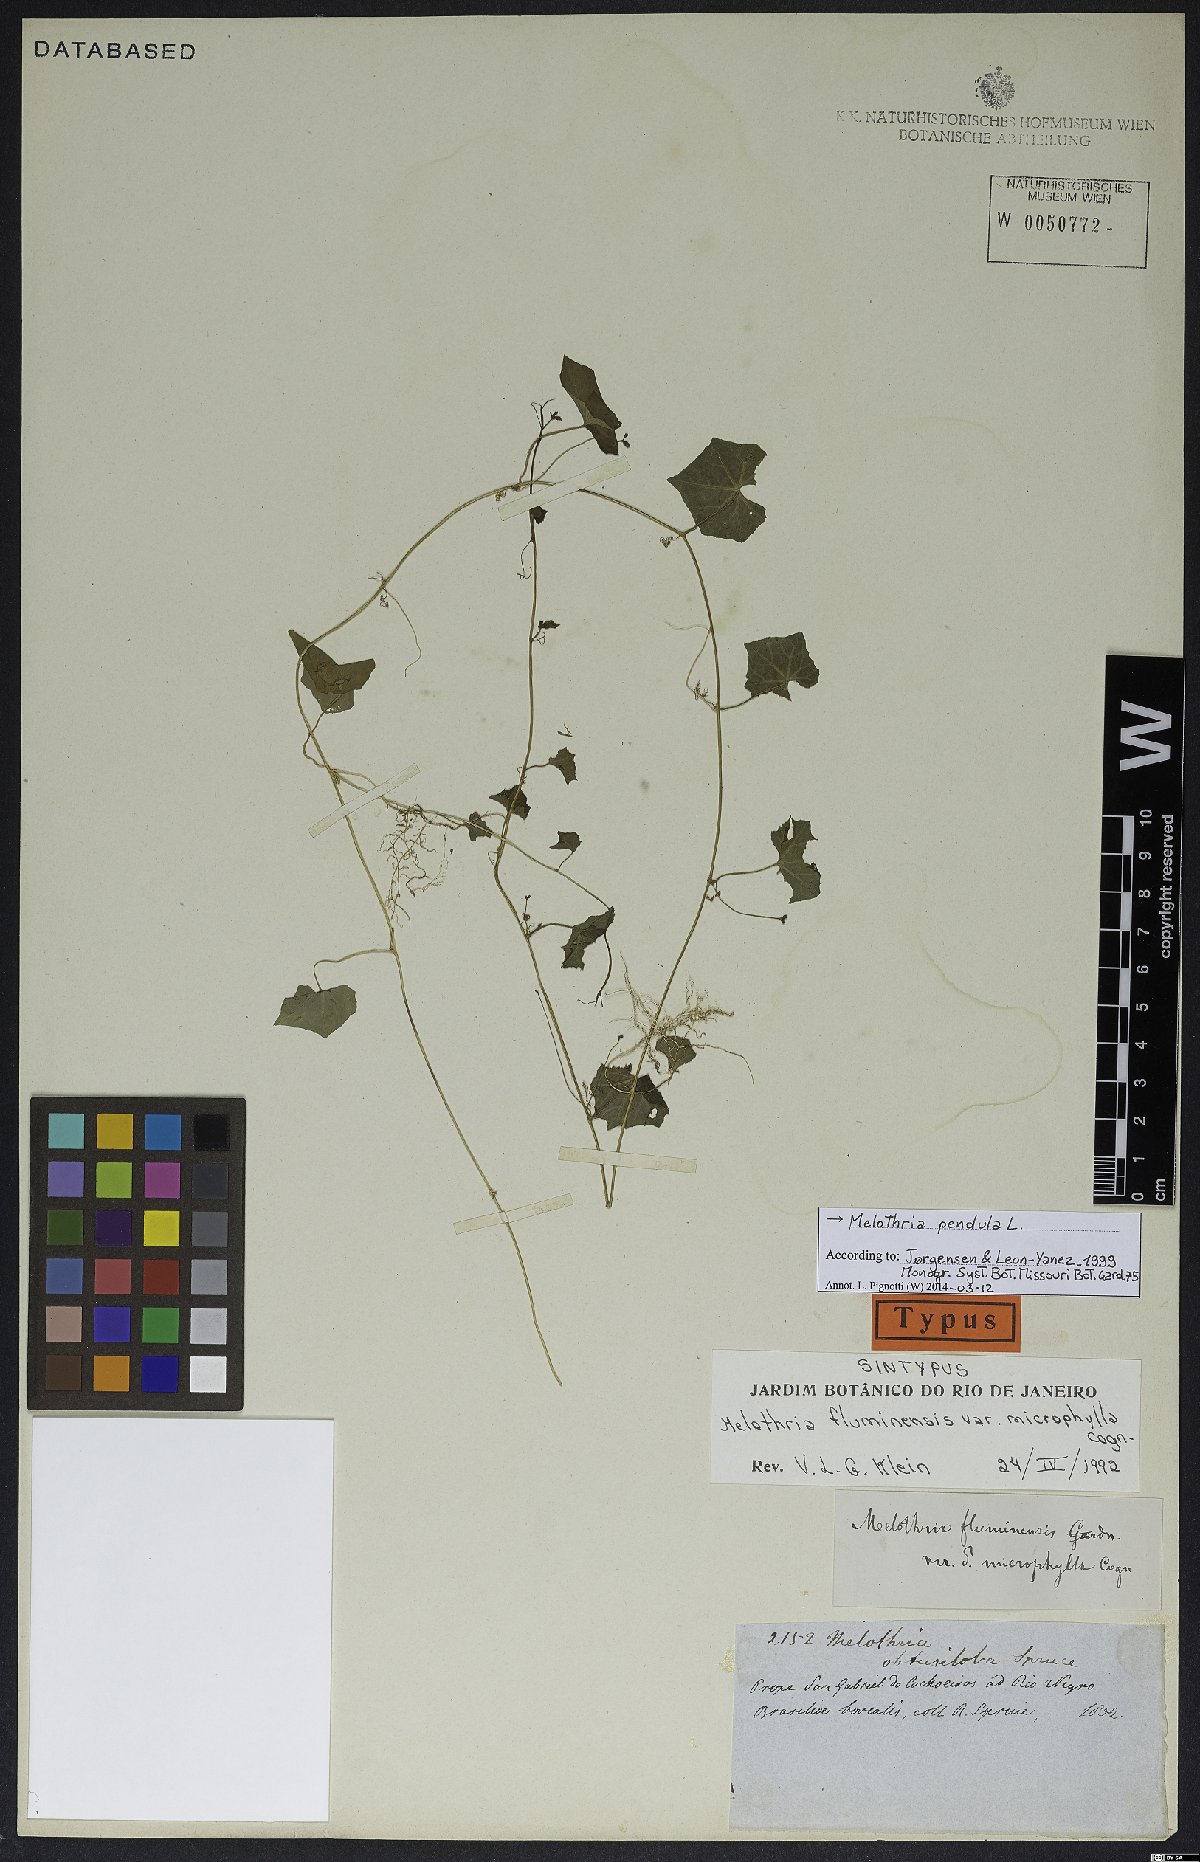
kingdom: Plantae
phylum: Tracheophyta
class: Magnoliopsida
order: Cucurbitales
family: Cucurbitaceae
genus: Melothria
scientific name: Melothria pendula
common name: Creeping-cucumber
